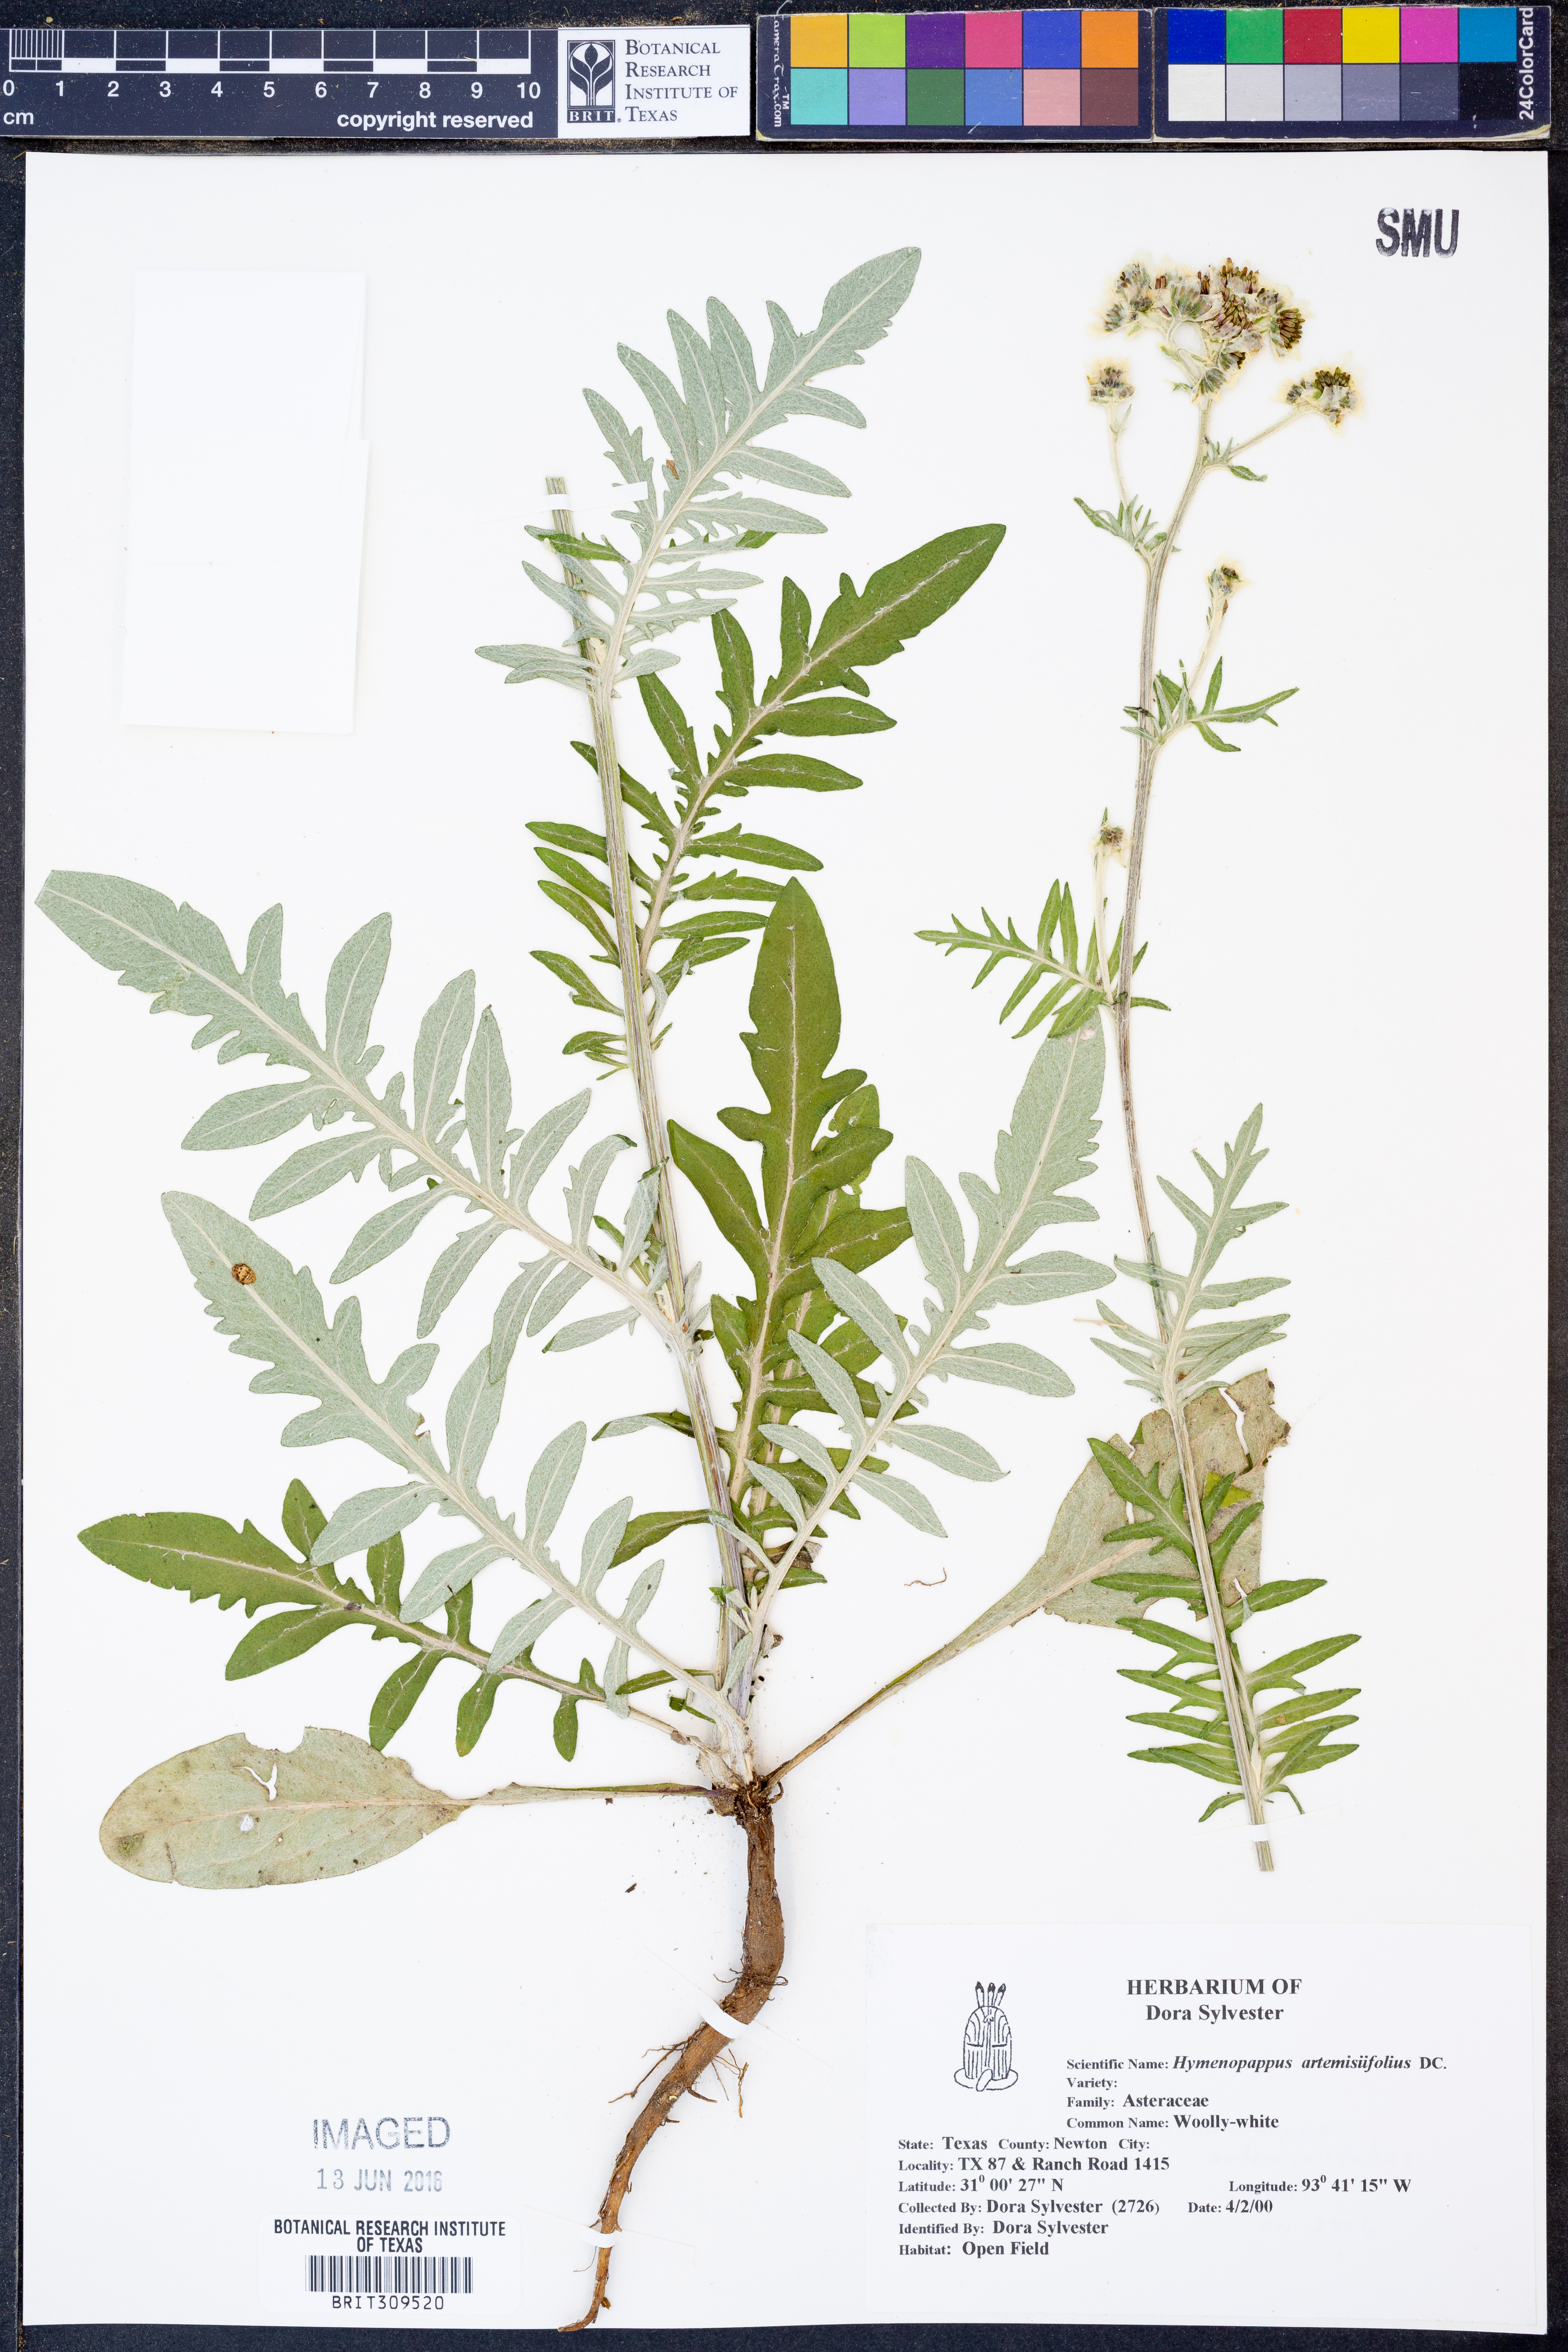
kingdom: Plantae
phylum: Tracheophyta
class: Magnoliopsida
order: Asterales
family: Asteraceae
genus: Hymenopappus
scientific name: Hymenopappus artemisiifolius
